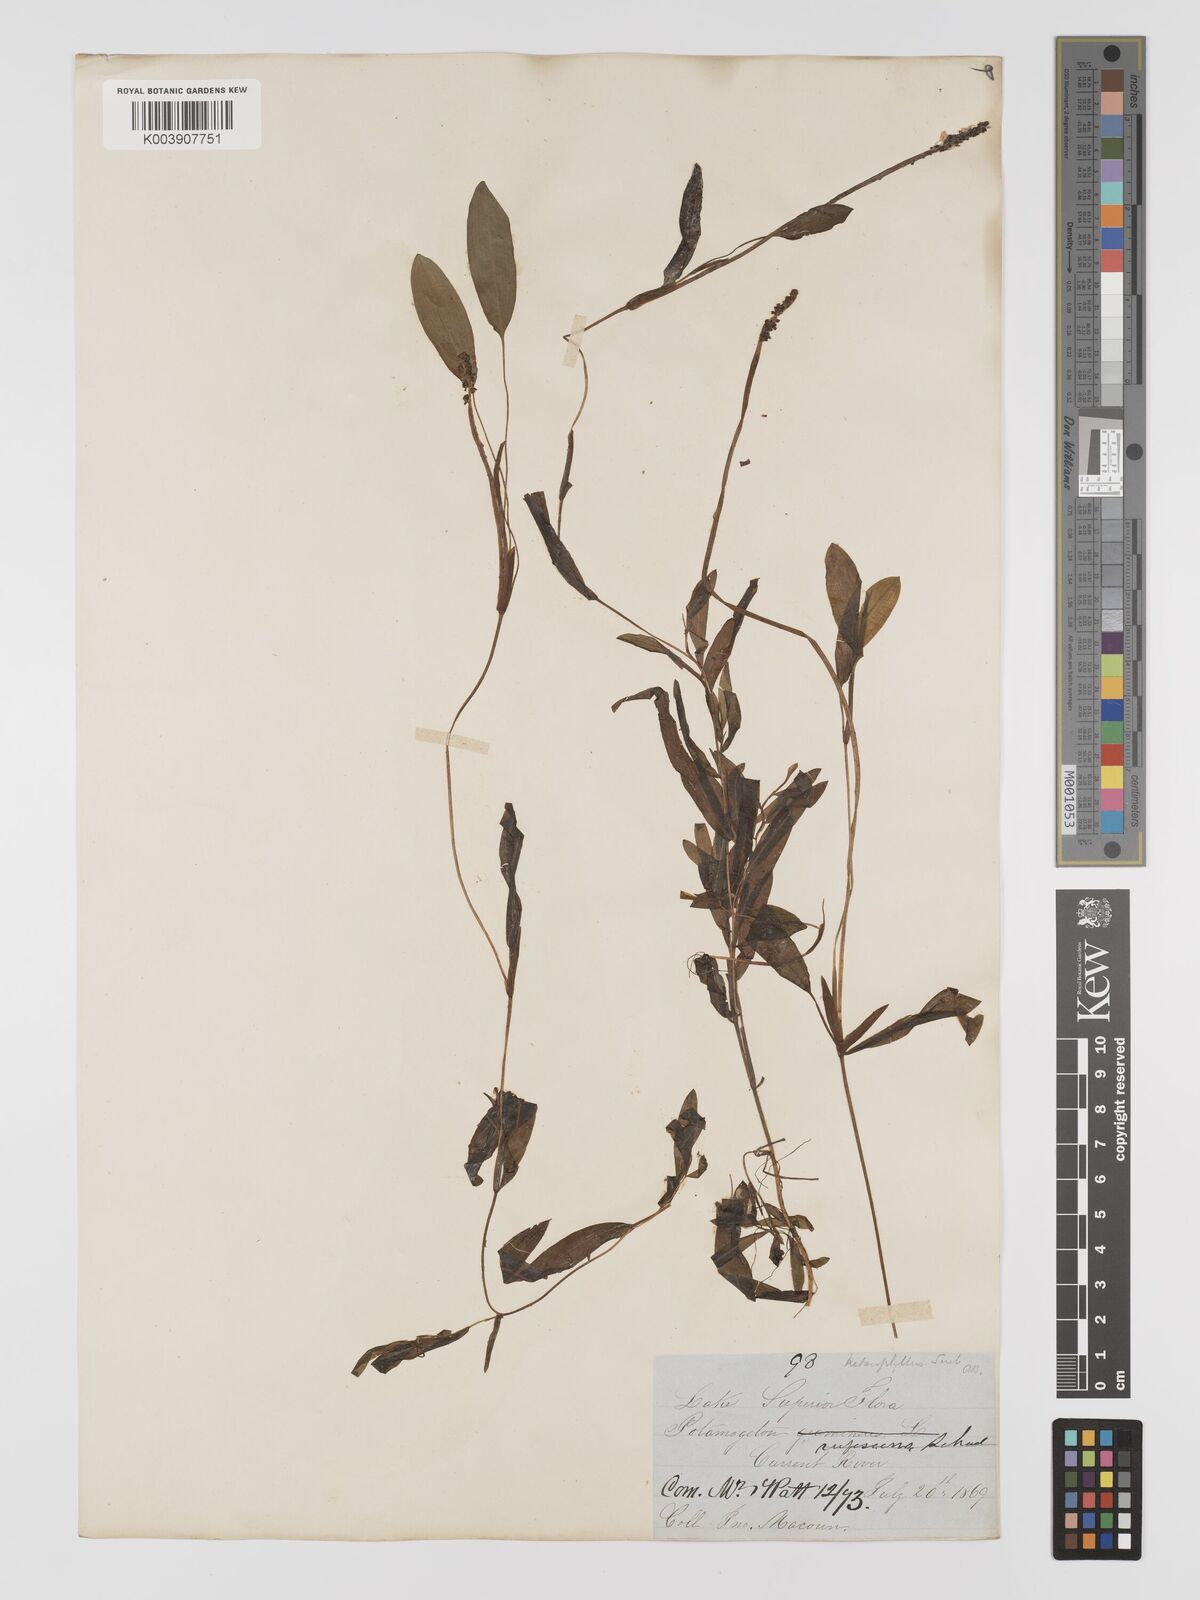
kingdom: Plantae
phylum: Tracheophyta
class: Liliopsida
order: Alismatales
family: Potamogetonaceae
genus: Potamogeton
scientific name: Potamogeton gramineus
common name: Various-leaved pondweed
